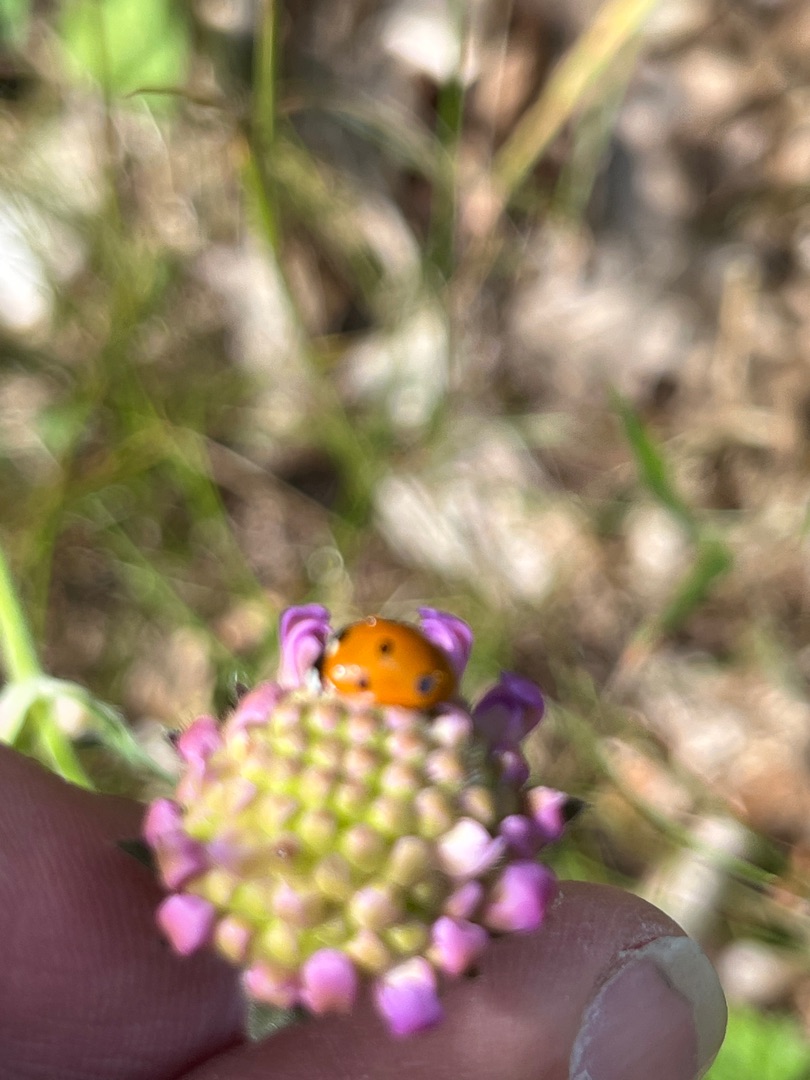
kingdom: Animalia
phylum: Arthropoda
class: Insecta
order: Coleoptera
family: Coccinellidae
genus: Coccinella
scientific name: Coccinella septempunctata
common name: Syvplettet mariehøne
